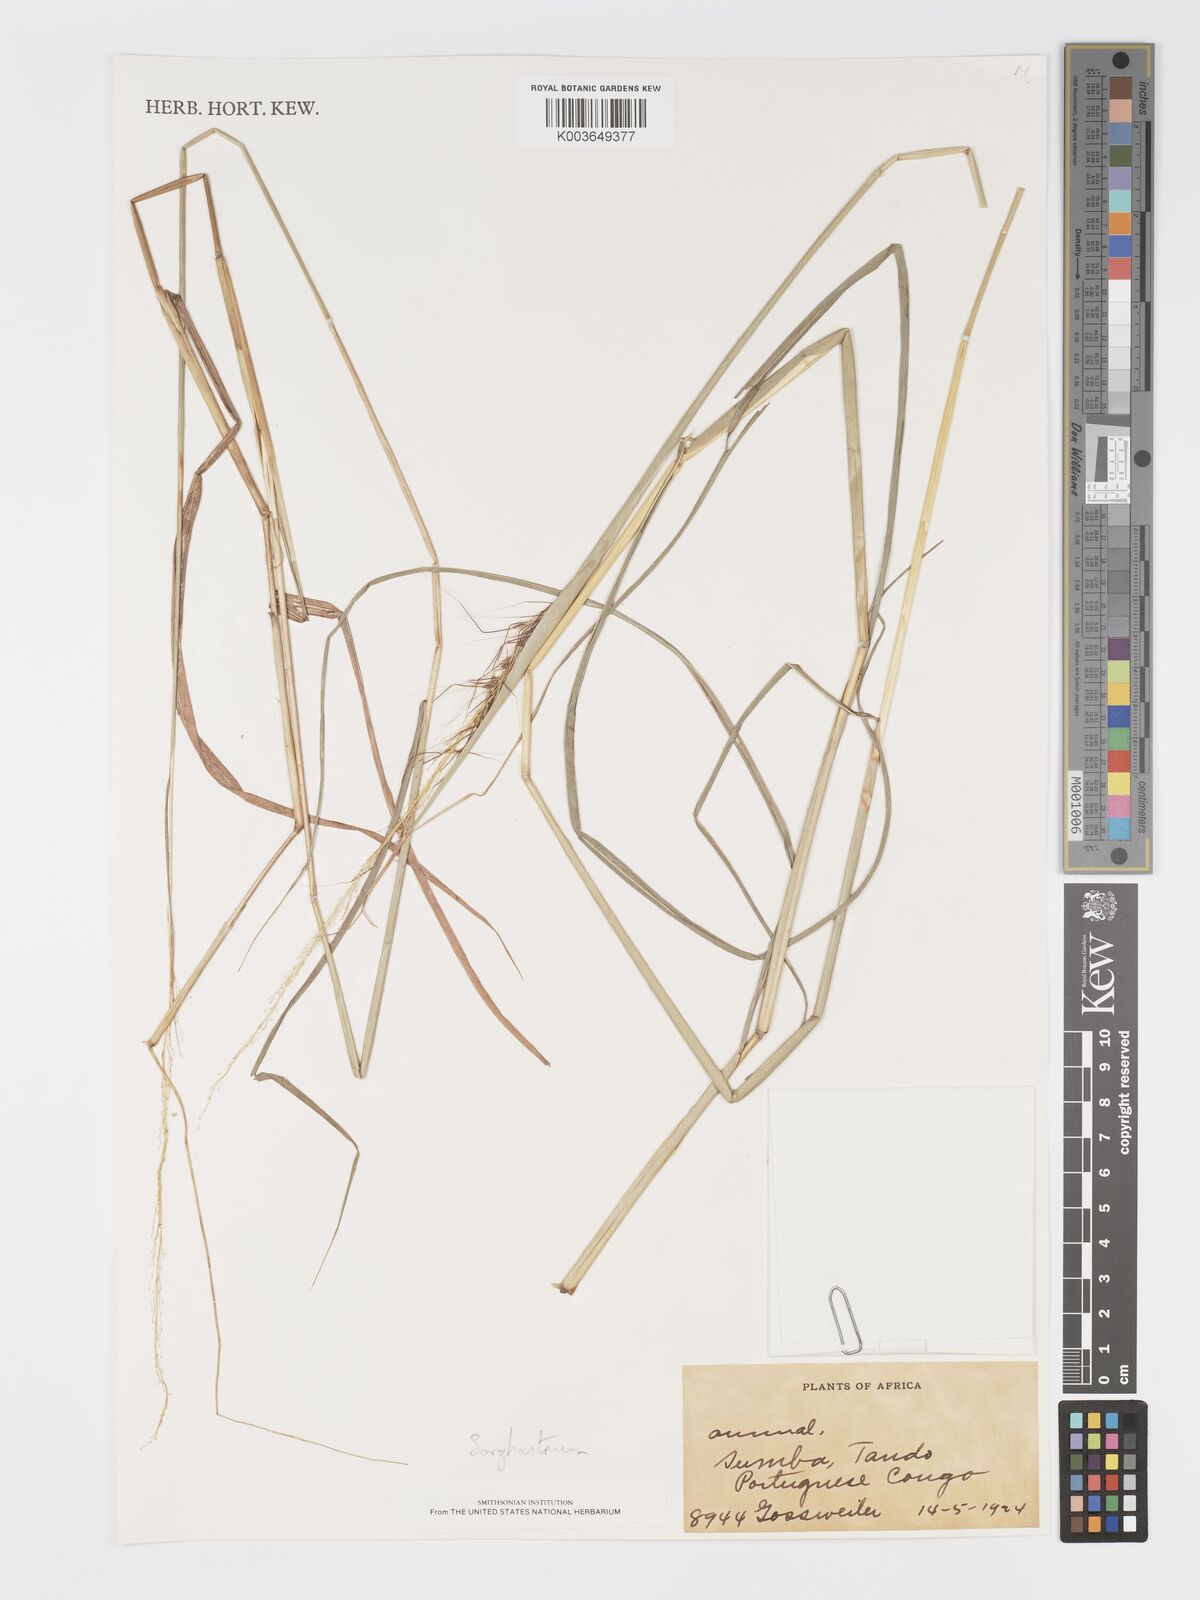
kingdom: Plantae
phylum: Tracheophyta
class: Liliopsida
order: Poales
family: Poaceae
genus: Sorghastrum
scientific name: Sorghastrum incompletum
